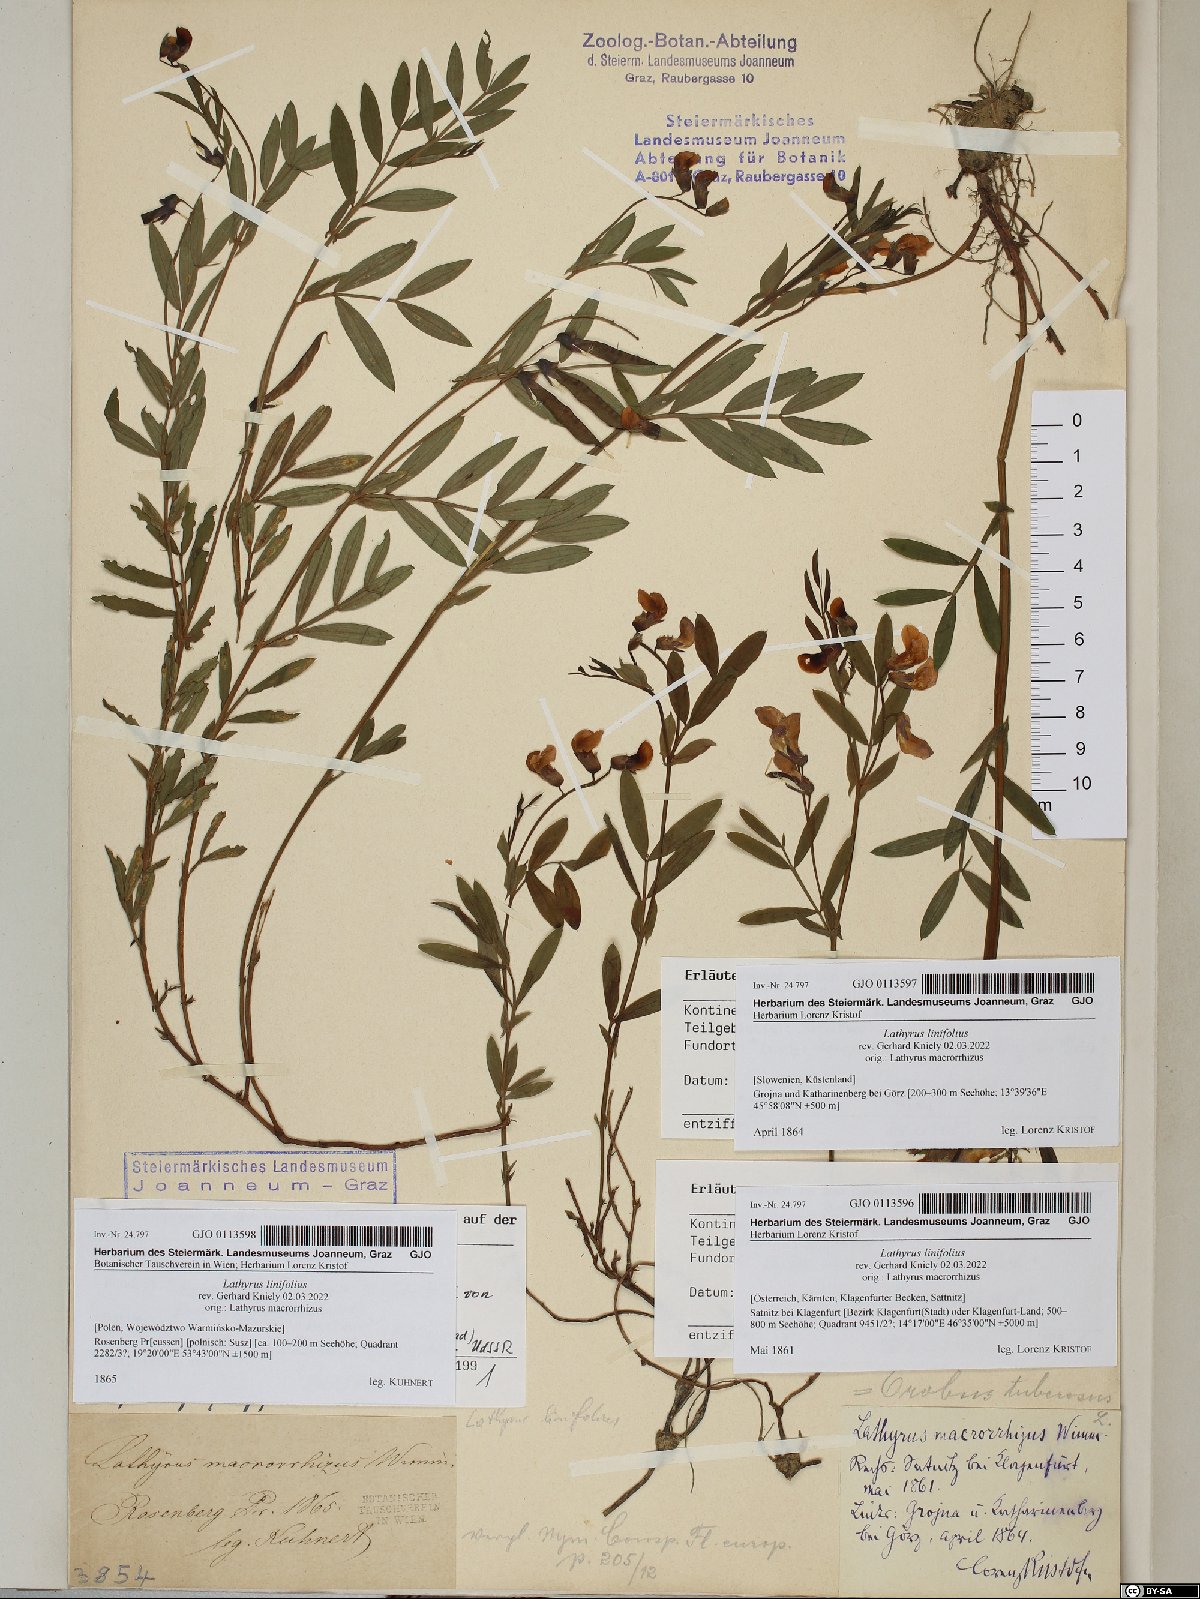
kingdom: Plantae
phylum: Tracheophyta
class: Magnoliopsida
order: Fabales
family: Fabaceae
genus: Lathyrus
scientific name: Lathyrus linifolius
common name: Bitter-vetch
